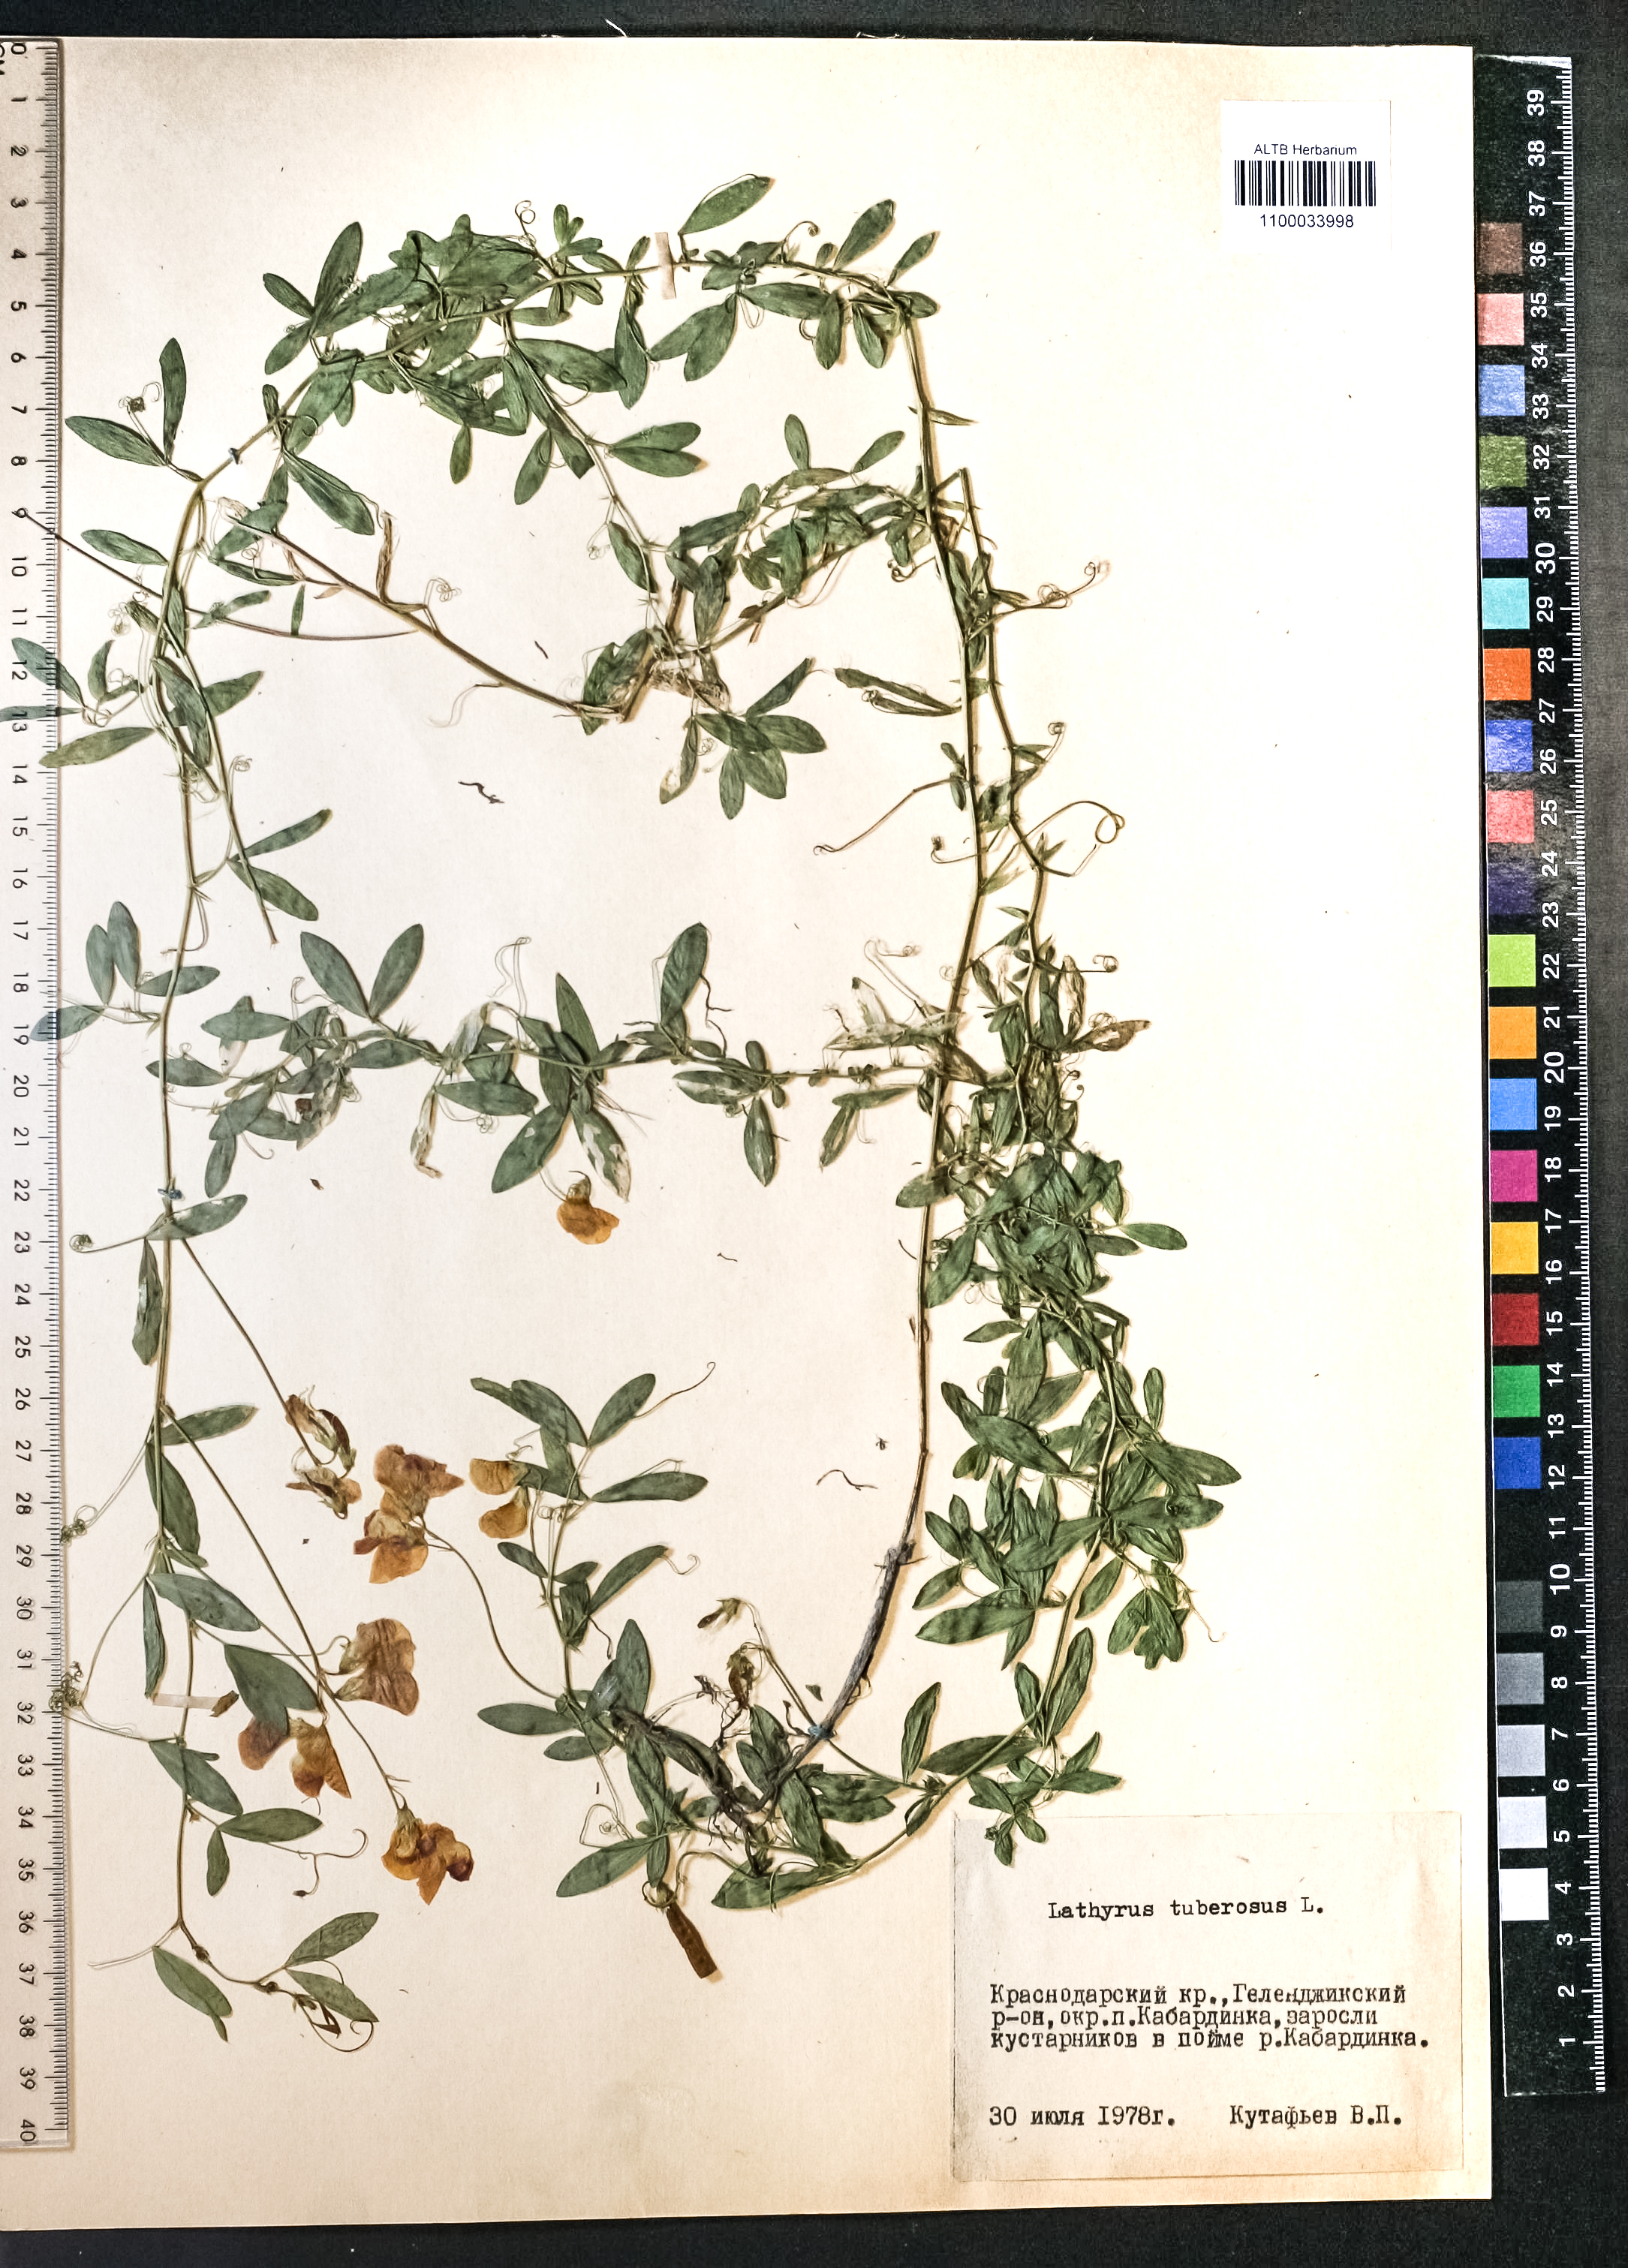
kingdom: Plantae
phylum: Tracheophyta
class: Magnoliopsida
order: Fabales
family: Fabaceae
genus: Lathyrus
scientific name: Lathyrus tuberosus
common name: Tuberous pea
